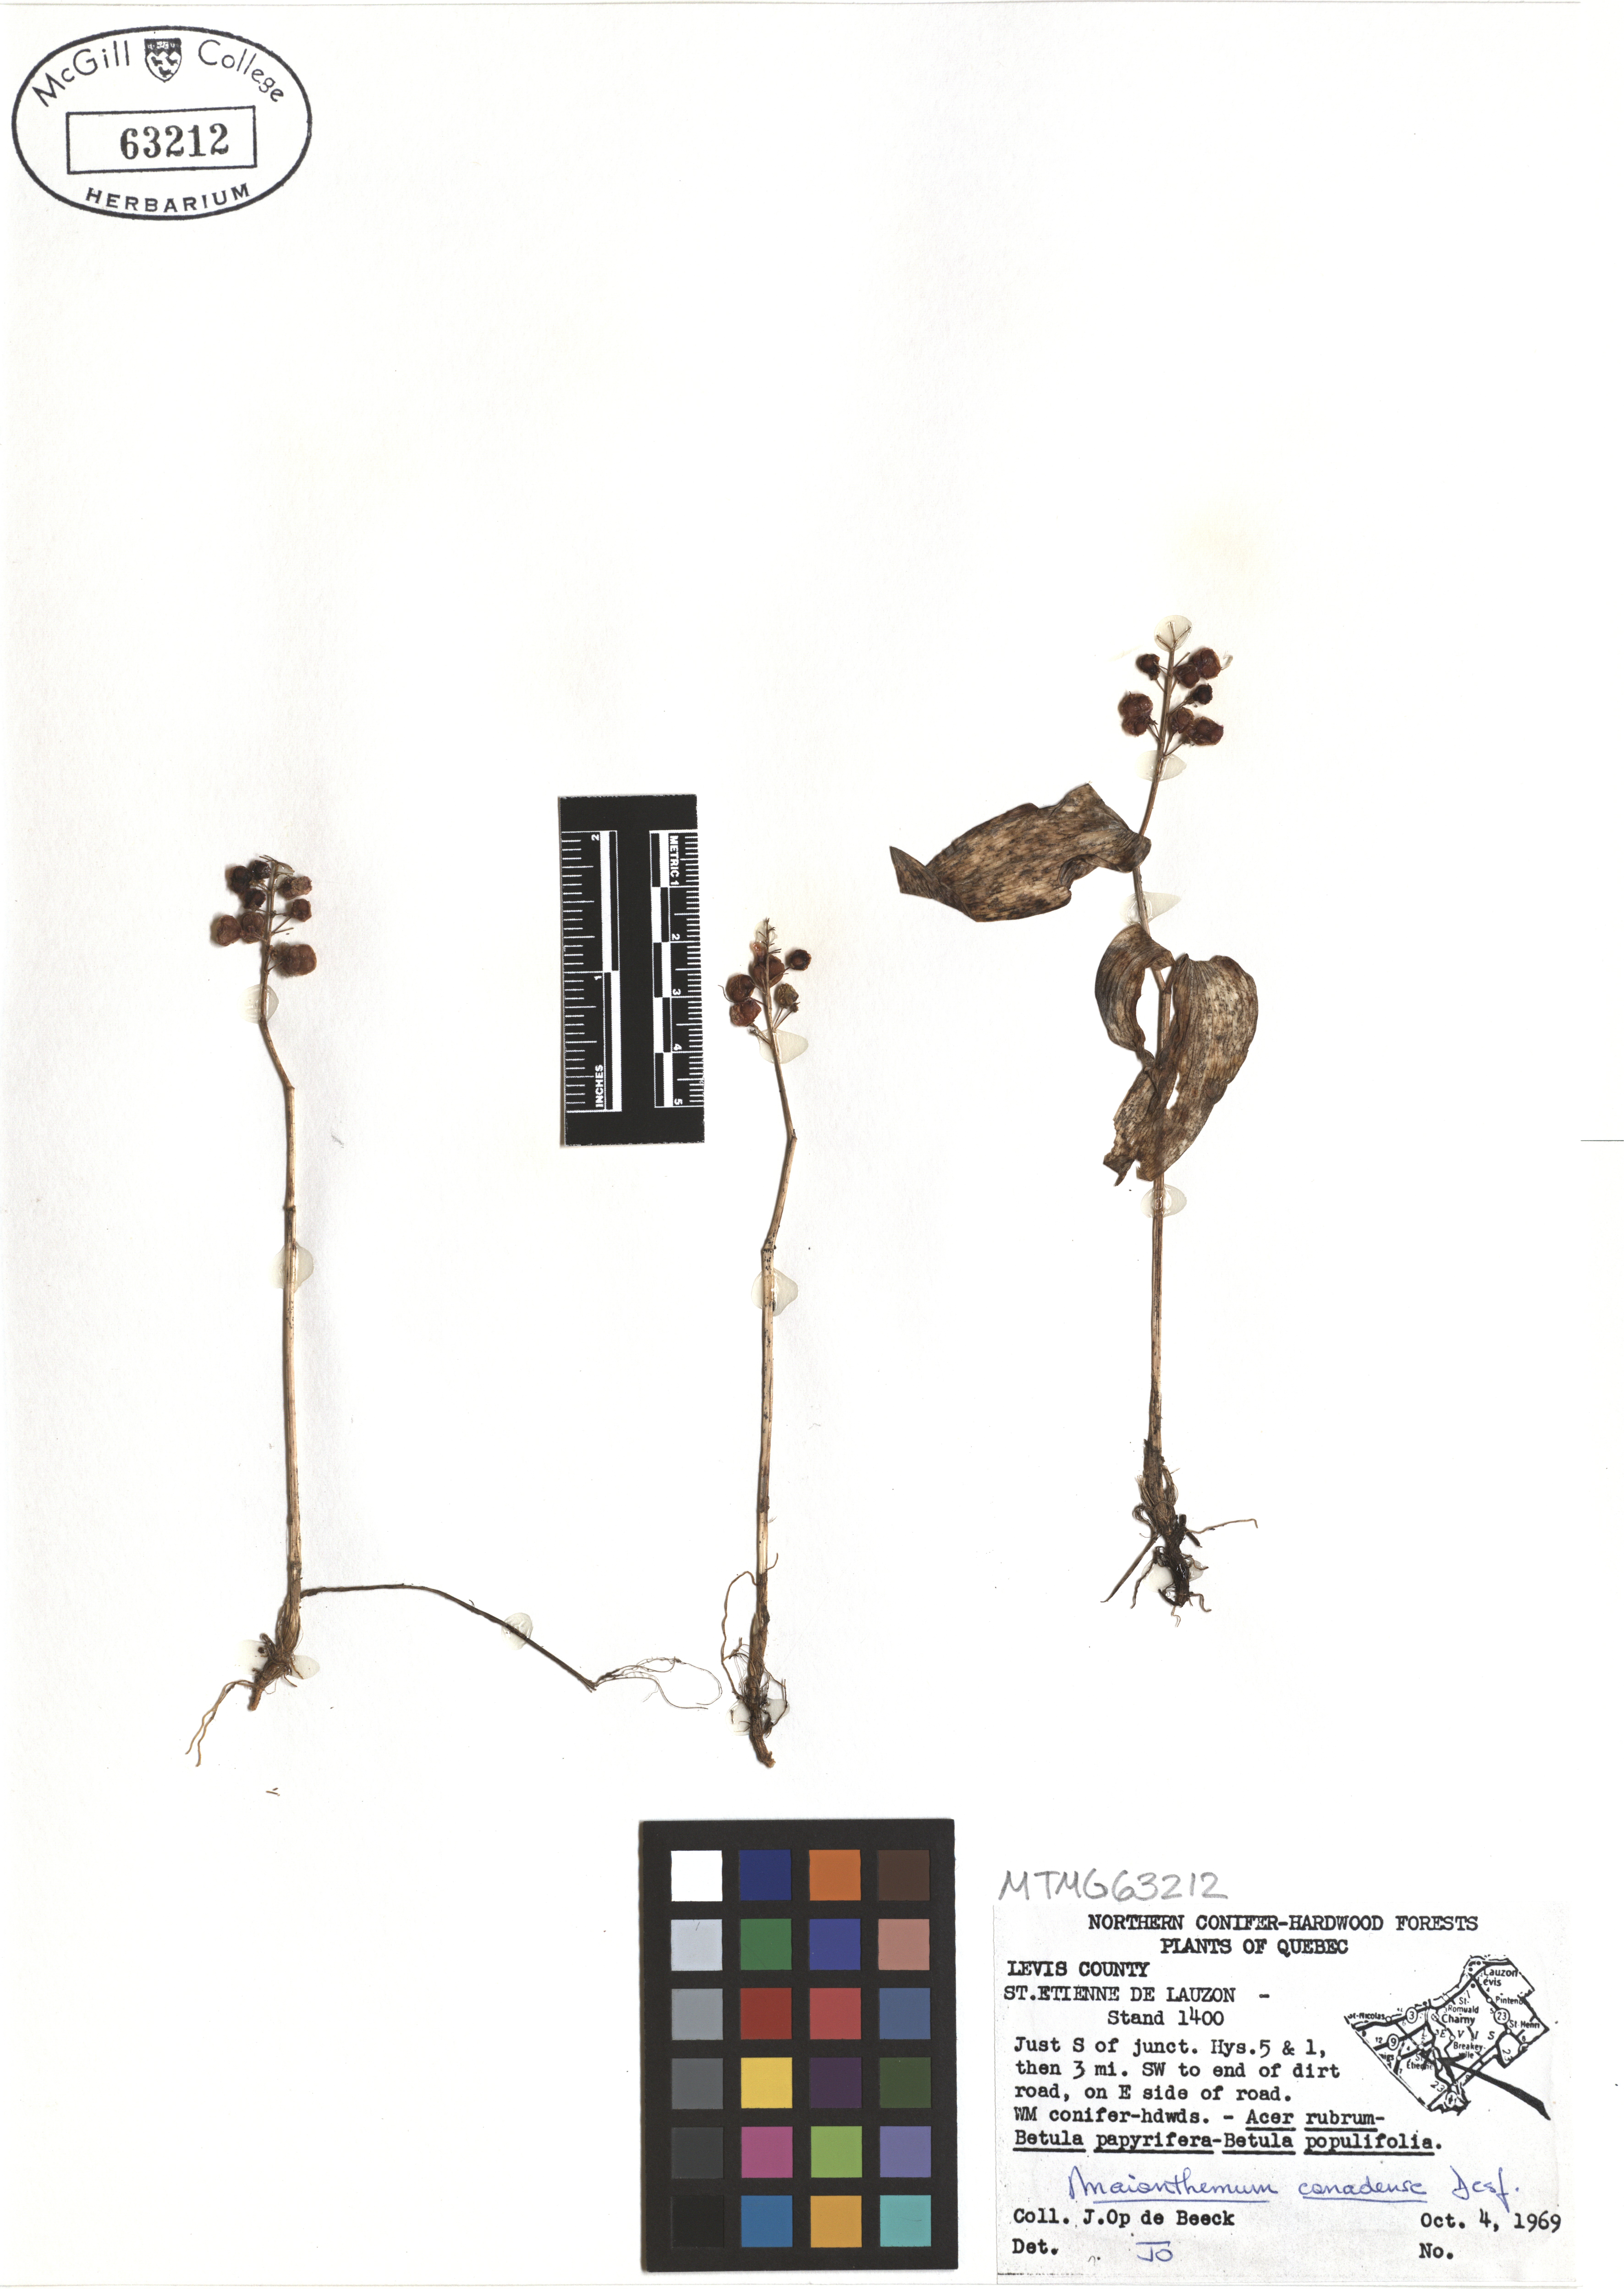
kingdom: Plantae
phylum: Tracheophyta
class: Liliopsida
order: Asparagales
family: Asparagaceae
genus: Maianthemum
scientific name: Maianthemum canadense
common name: False lily-of-the-valley
